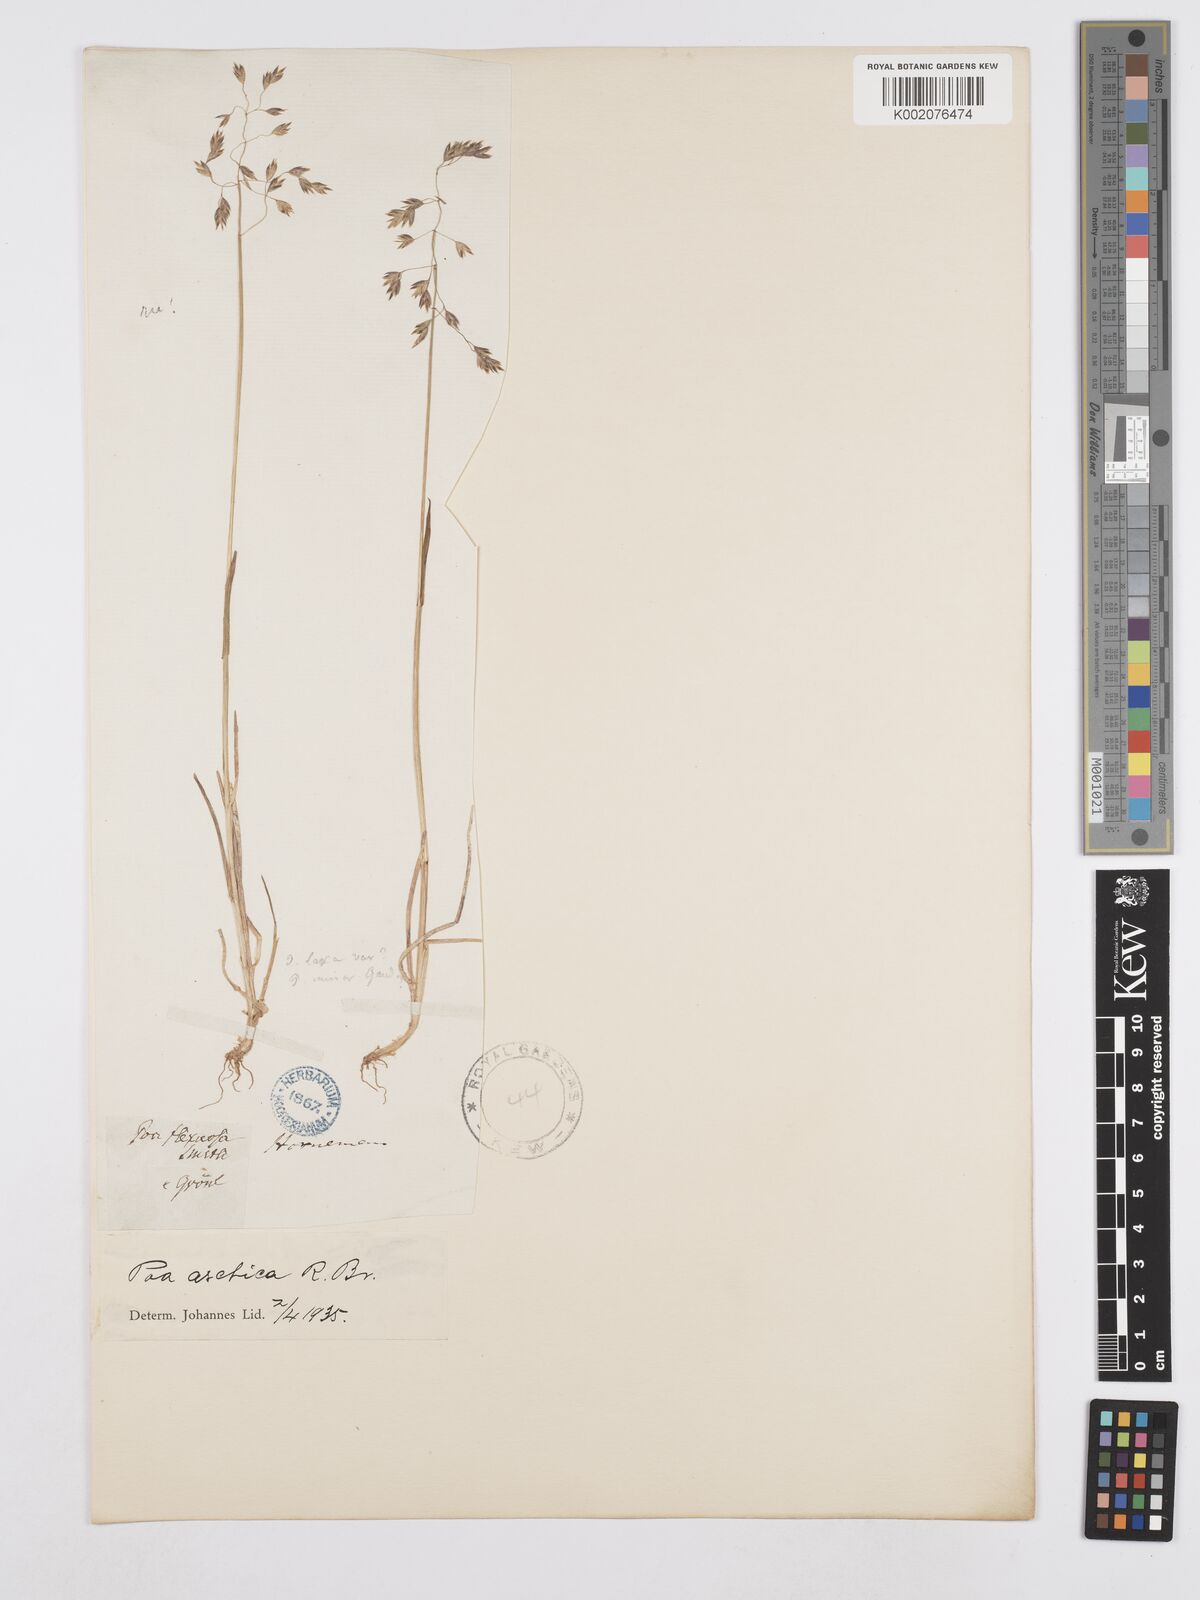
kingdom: Plantae
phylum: Tracheophyta
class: Liliopsida
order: Poales
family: Poaceae
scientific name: Poaceae
